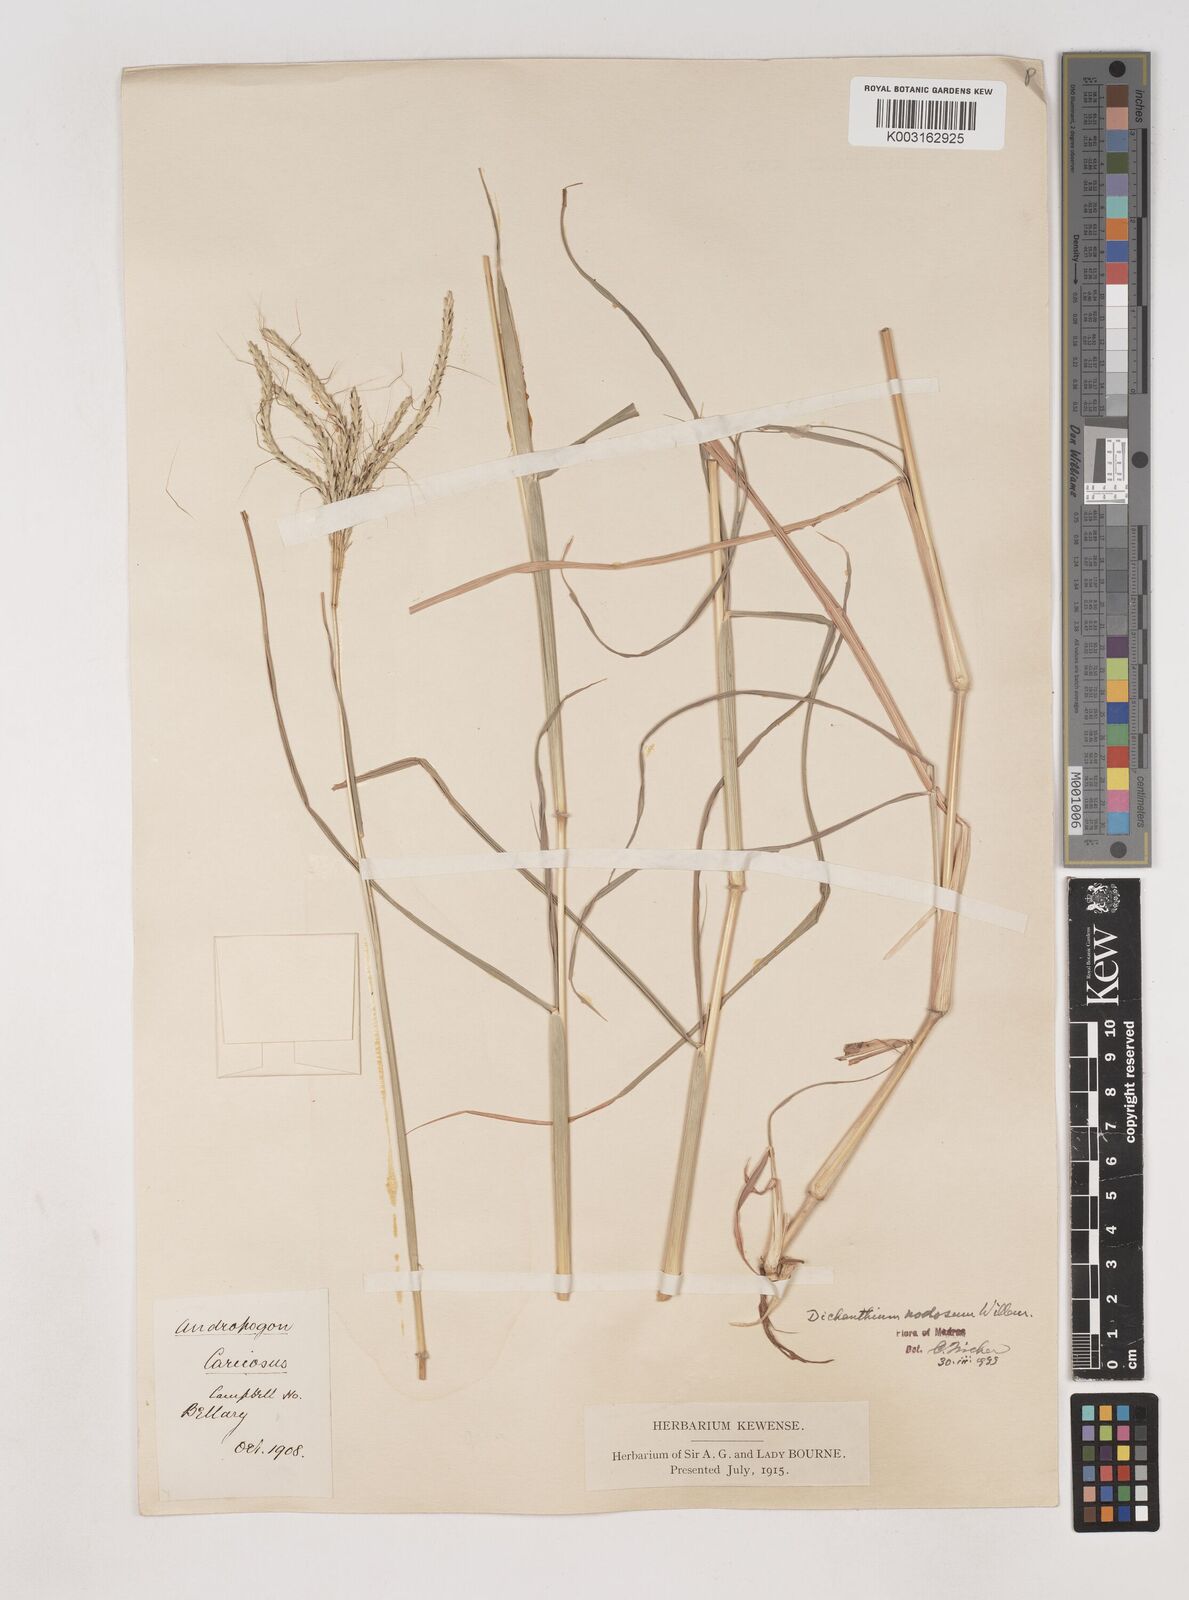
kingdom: Plantae
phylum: Tracheophyta
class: Liliopsida
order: Poales
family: Poaceae
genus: Dichanthium
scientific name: Dichanthium aristatum
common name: Angleton bluestem
